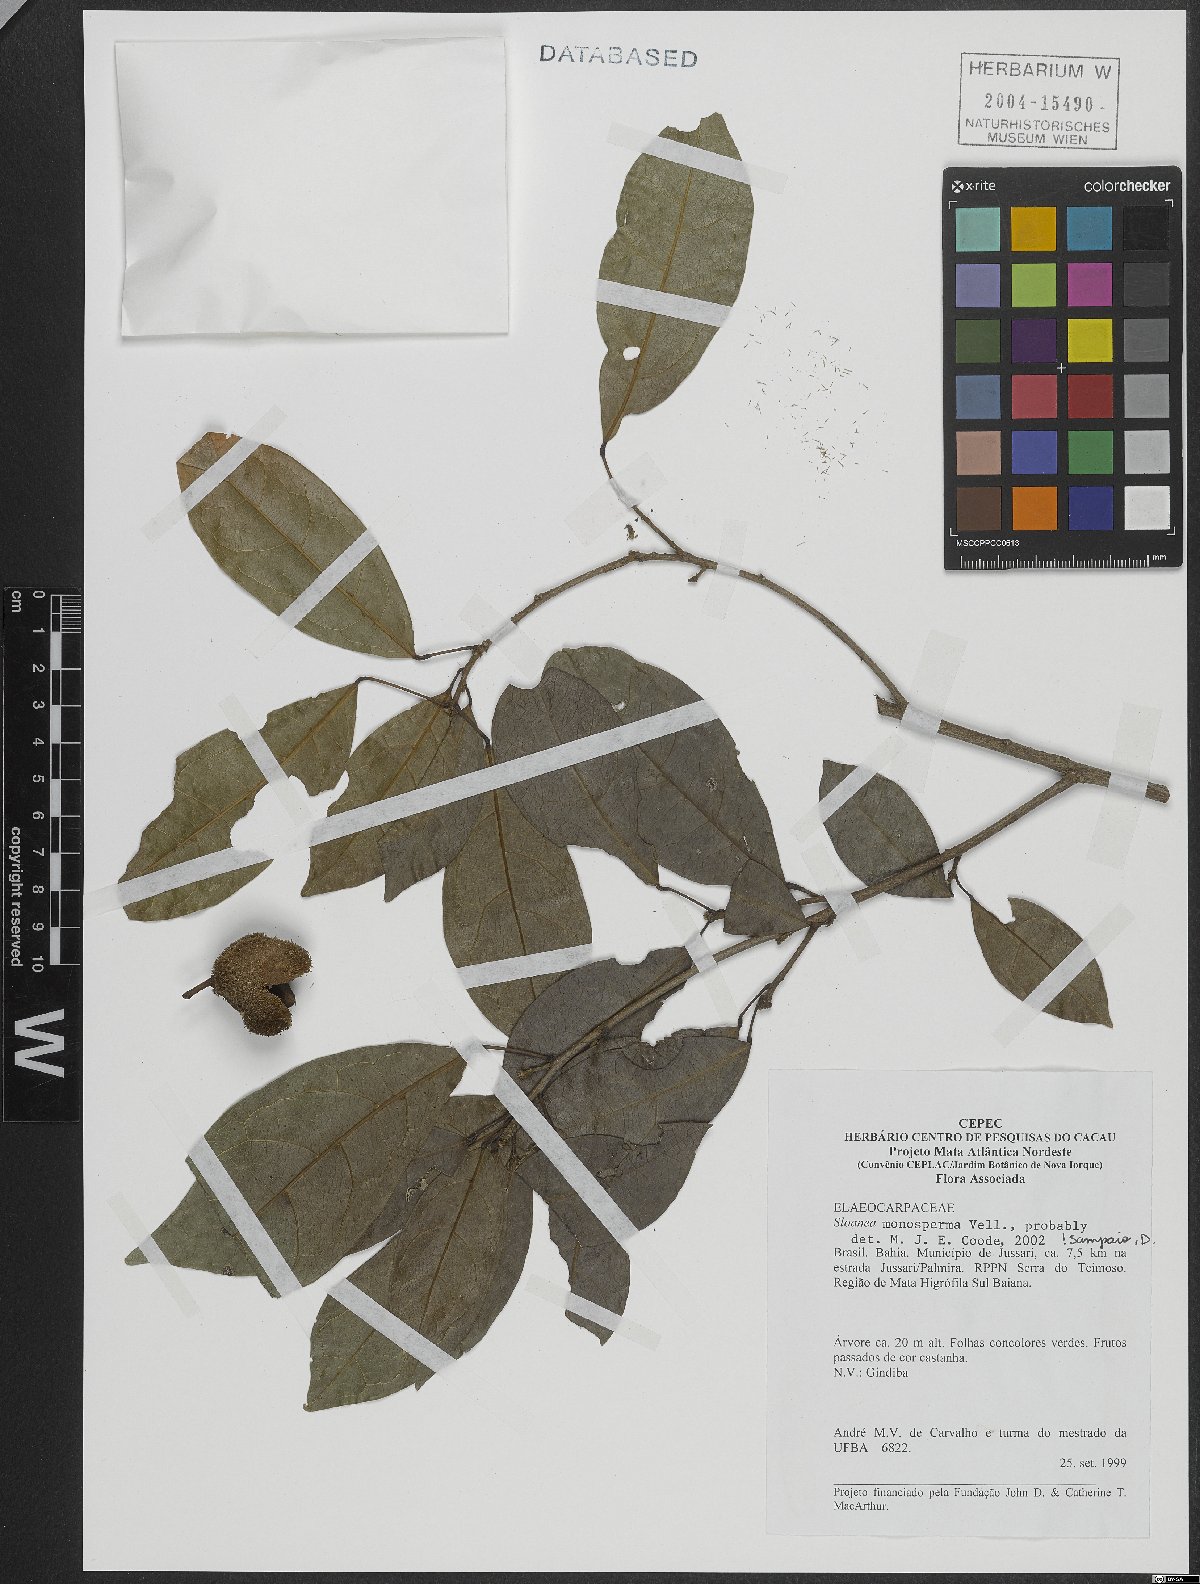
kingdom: Plantae
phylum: Tracheophyta
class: Magnoliopsida
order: Oxalidales
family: Elaeocarpaceae
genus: Sloanea
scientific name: Sloanea hirsuta
